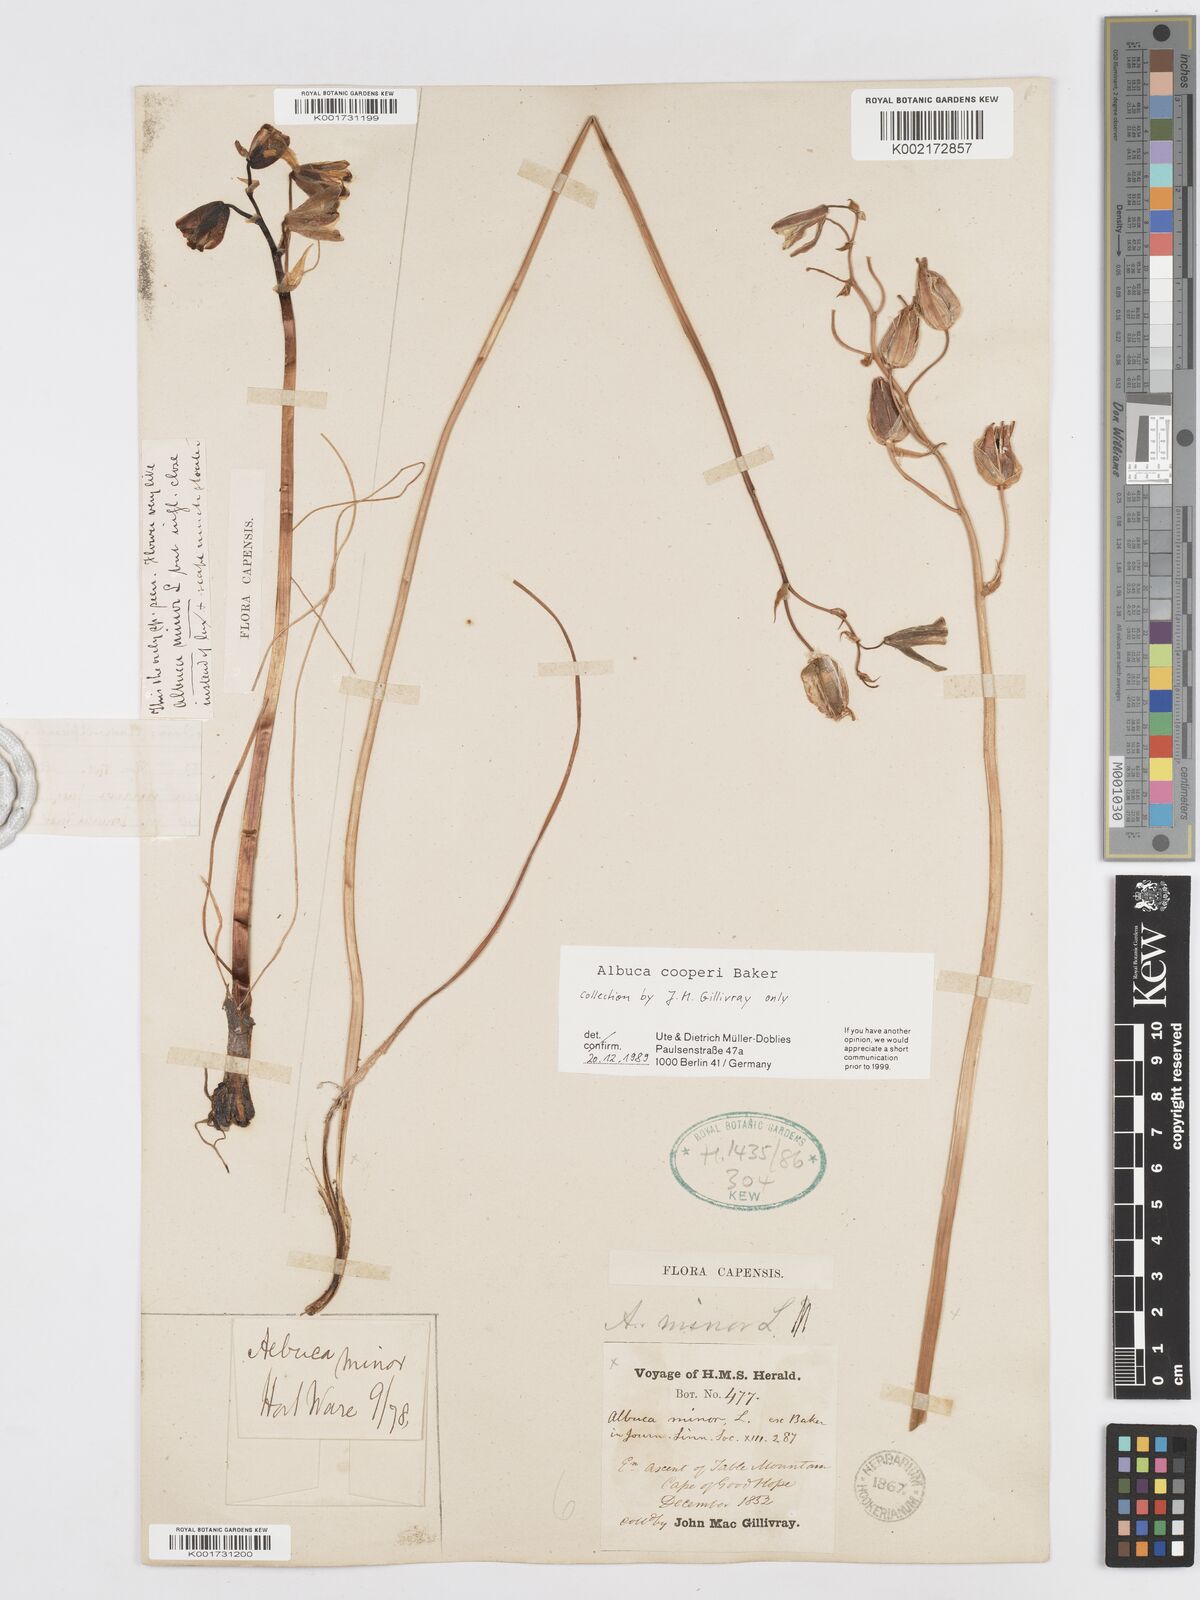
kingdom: Plantae
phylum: Tracheophyta
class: Liliopsida
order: Asparagales
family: Asparagaceae
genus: Albuca
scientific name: Albuca cooperi
